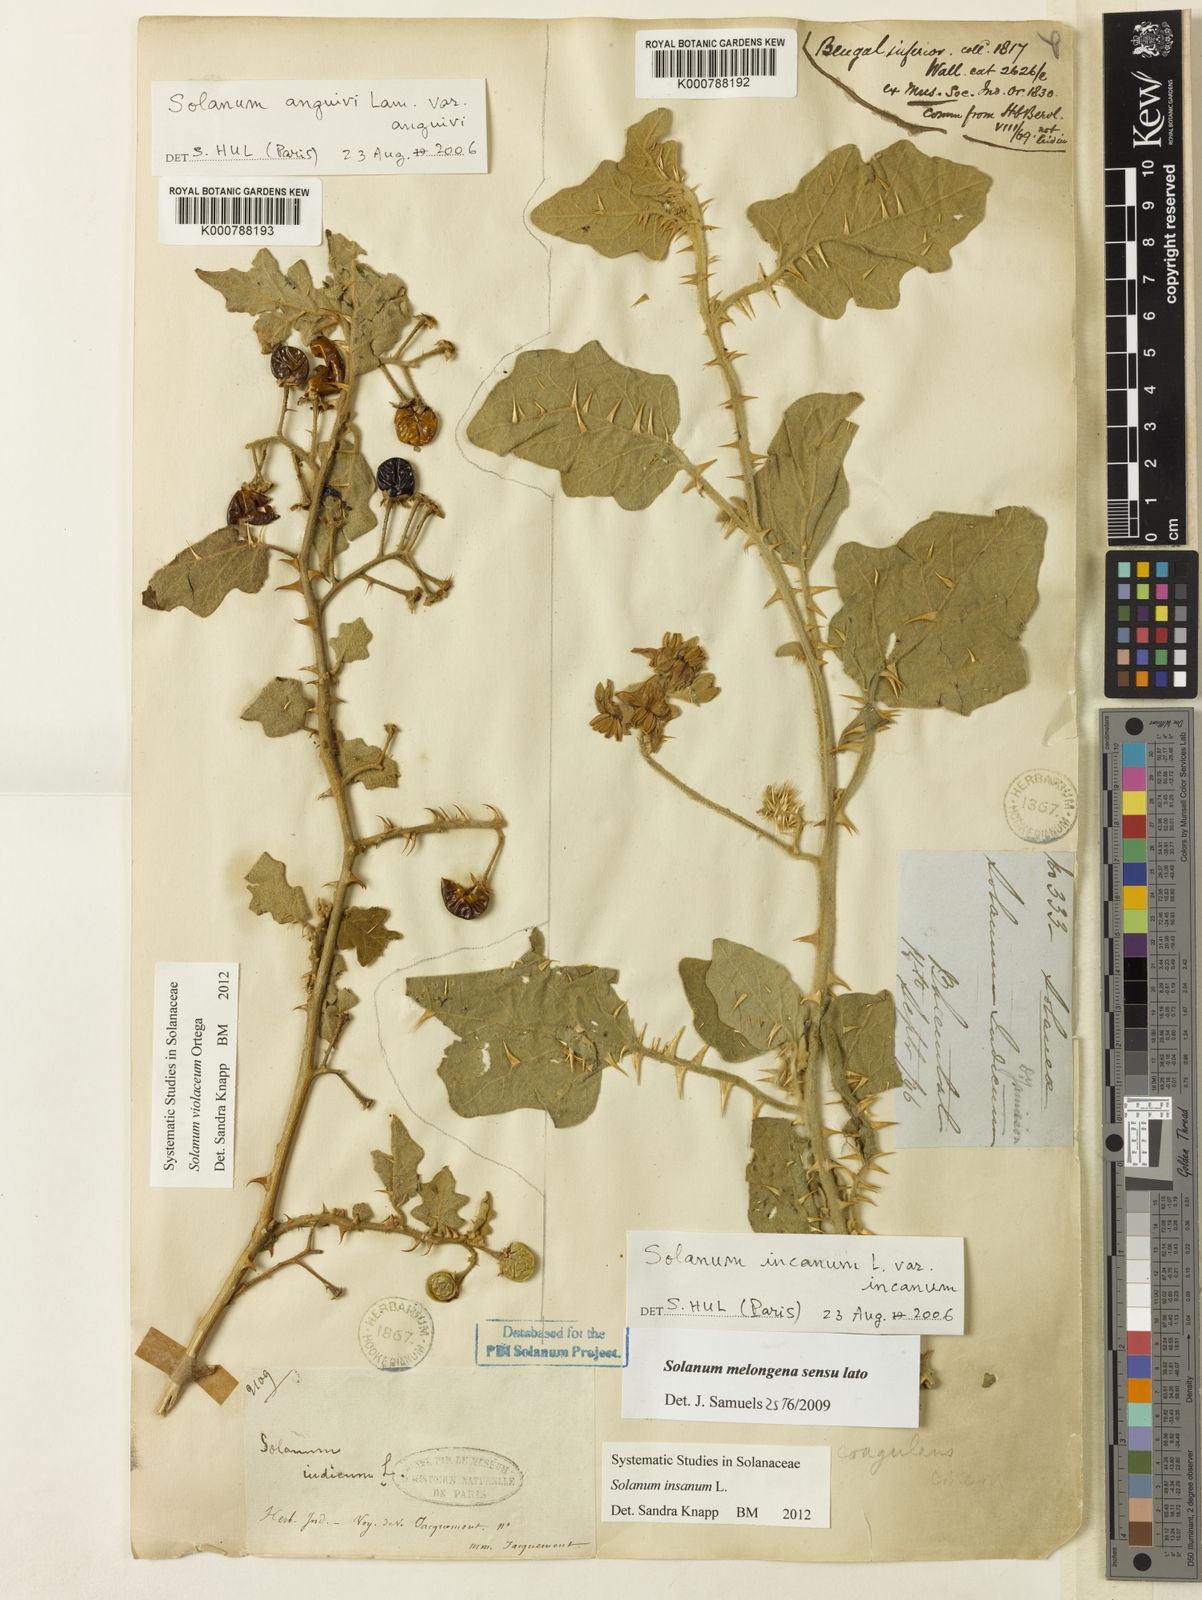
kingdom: Plantae
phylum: Tracheophyta
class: Magnoliopsida
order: Solanales
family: Solanaceae
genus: Solanum
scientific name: Solanum insanum
